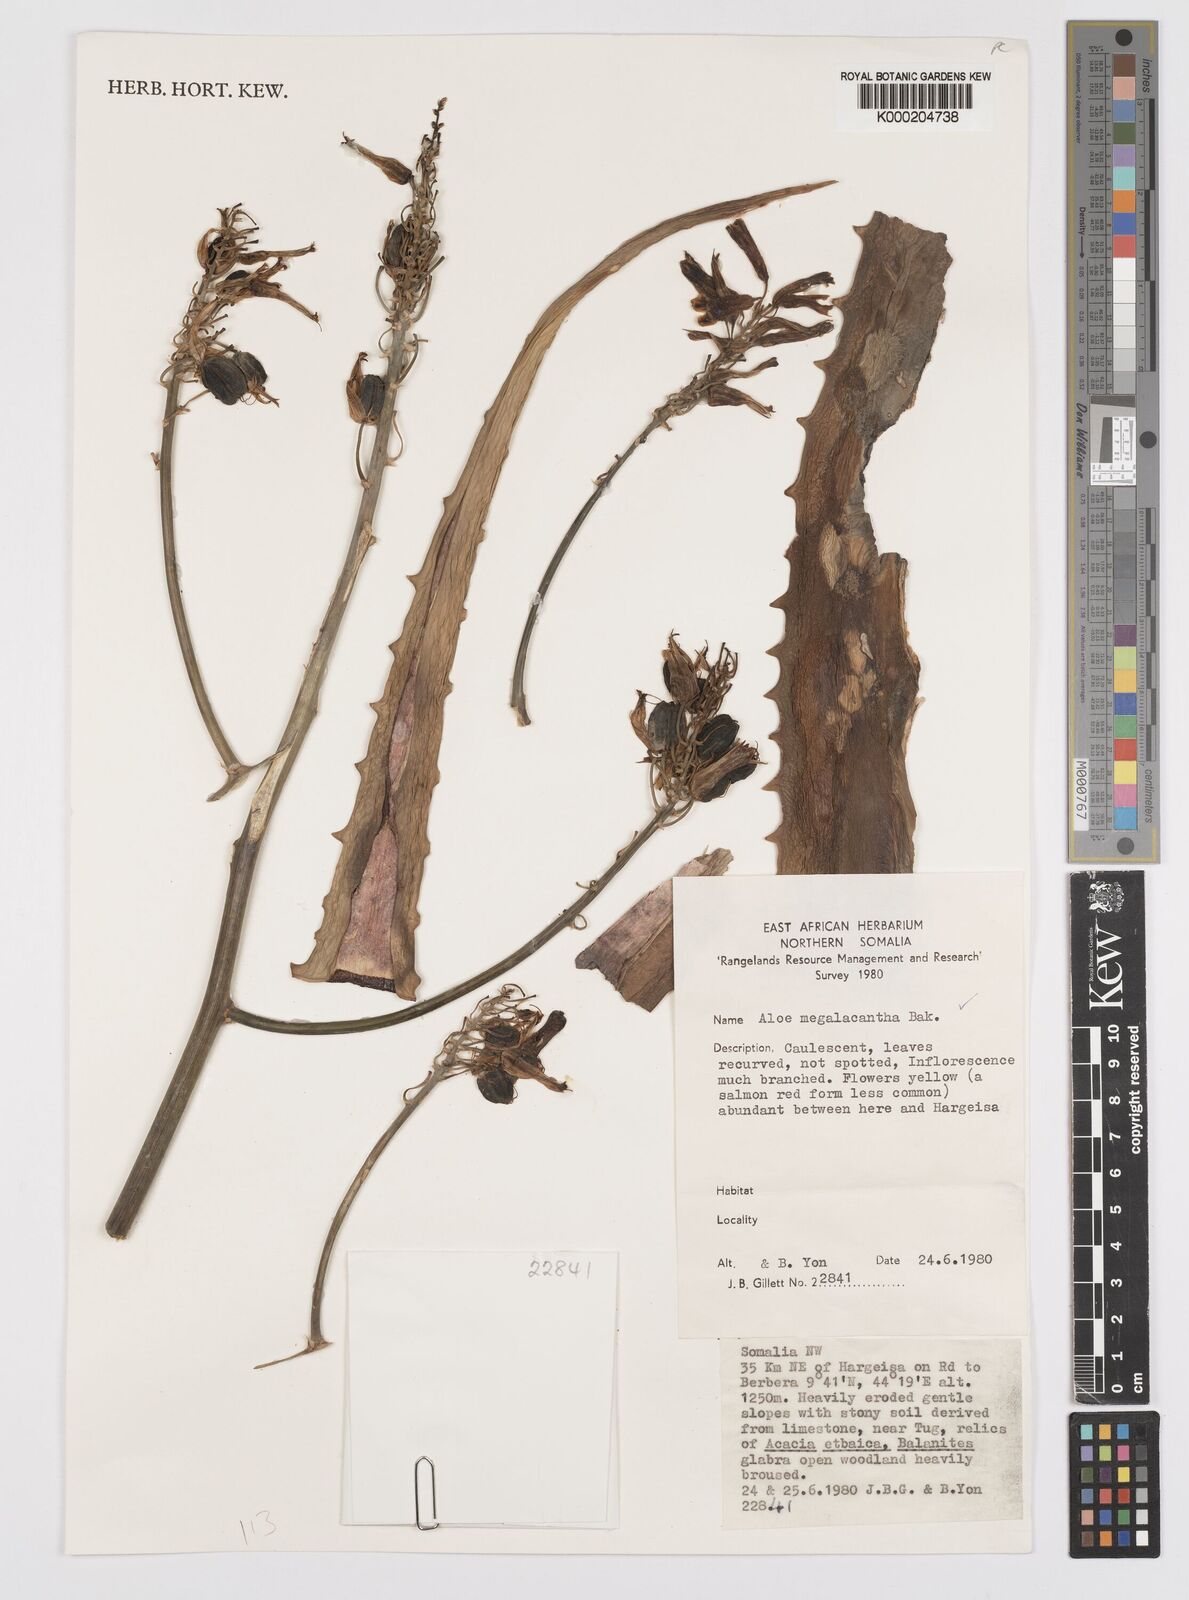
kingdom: Plantae
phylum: Tracheophyta
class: Liliopsida
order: Asparagales
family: Asphodelaceae
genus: Aloe
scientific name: Aloe megalacantha
